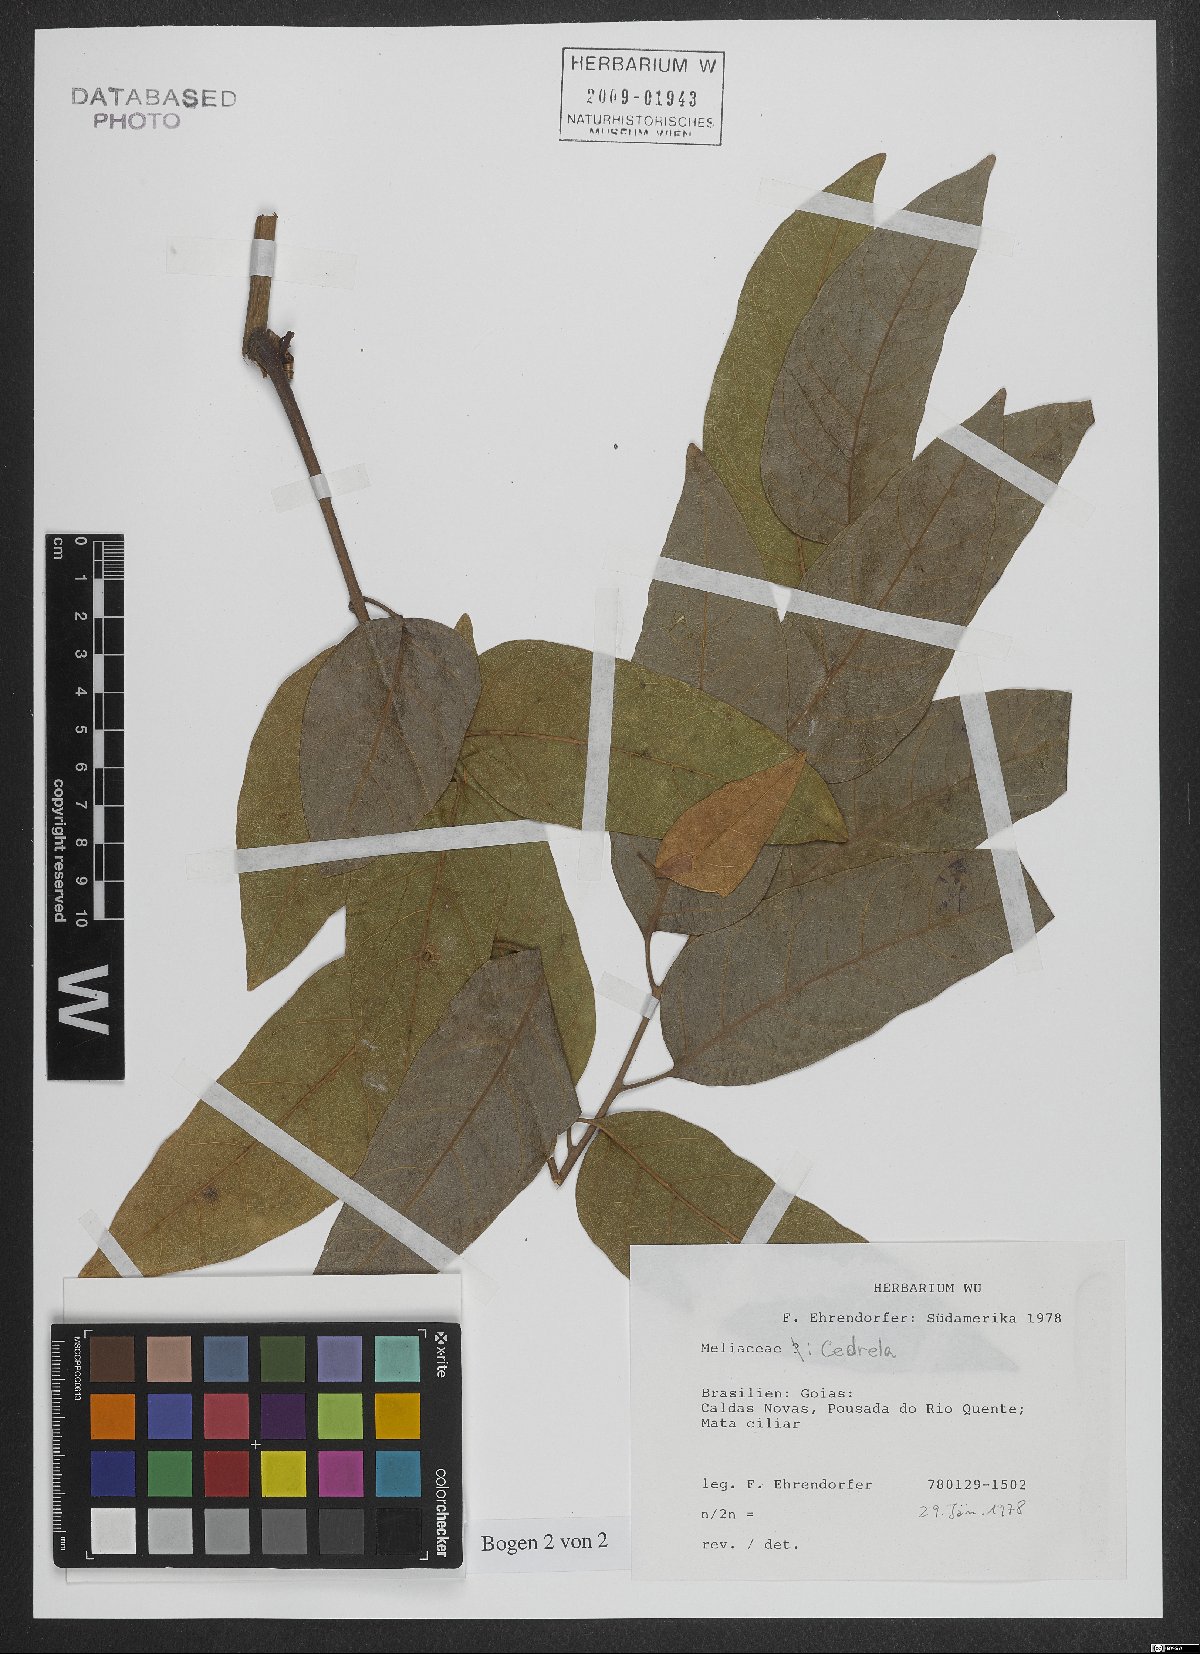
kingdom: Plantae
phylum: Tracheophyta
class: Magnoliopsida
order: Sapindales
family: Meliaceae
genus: Cedrela
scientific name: Cedrela
